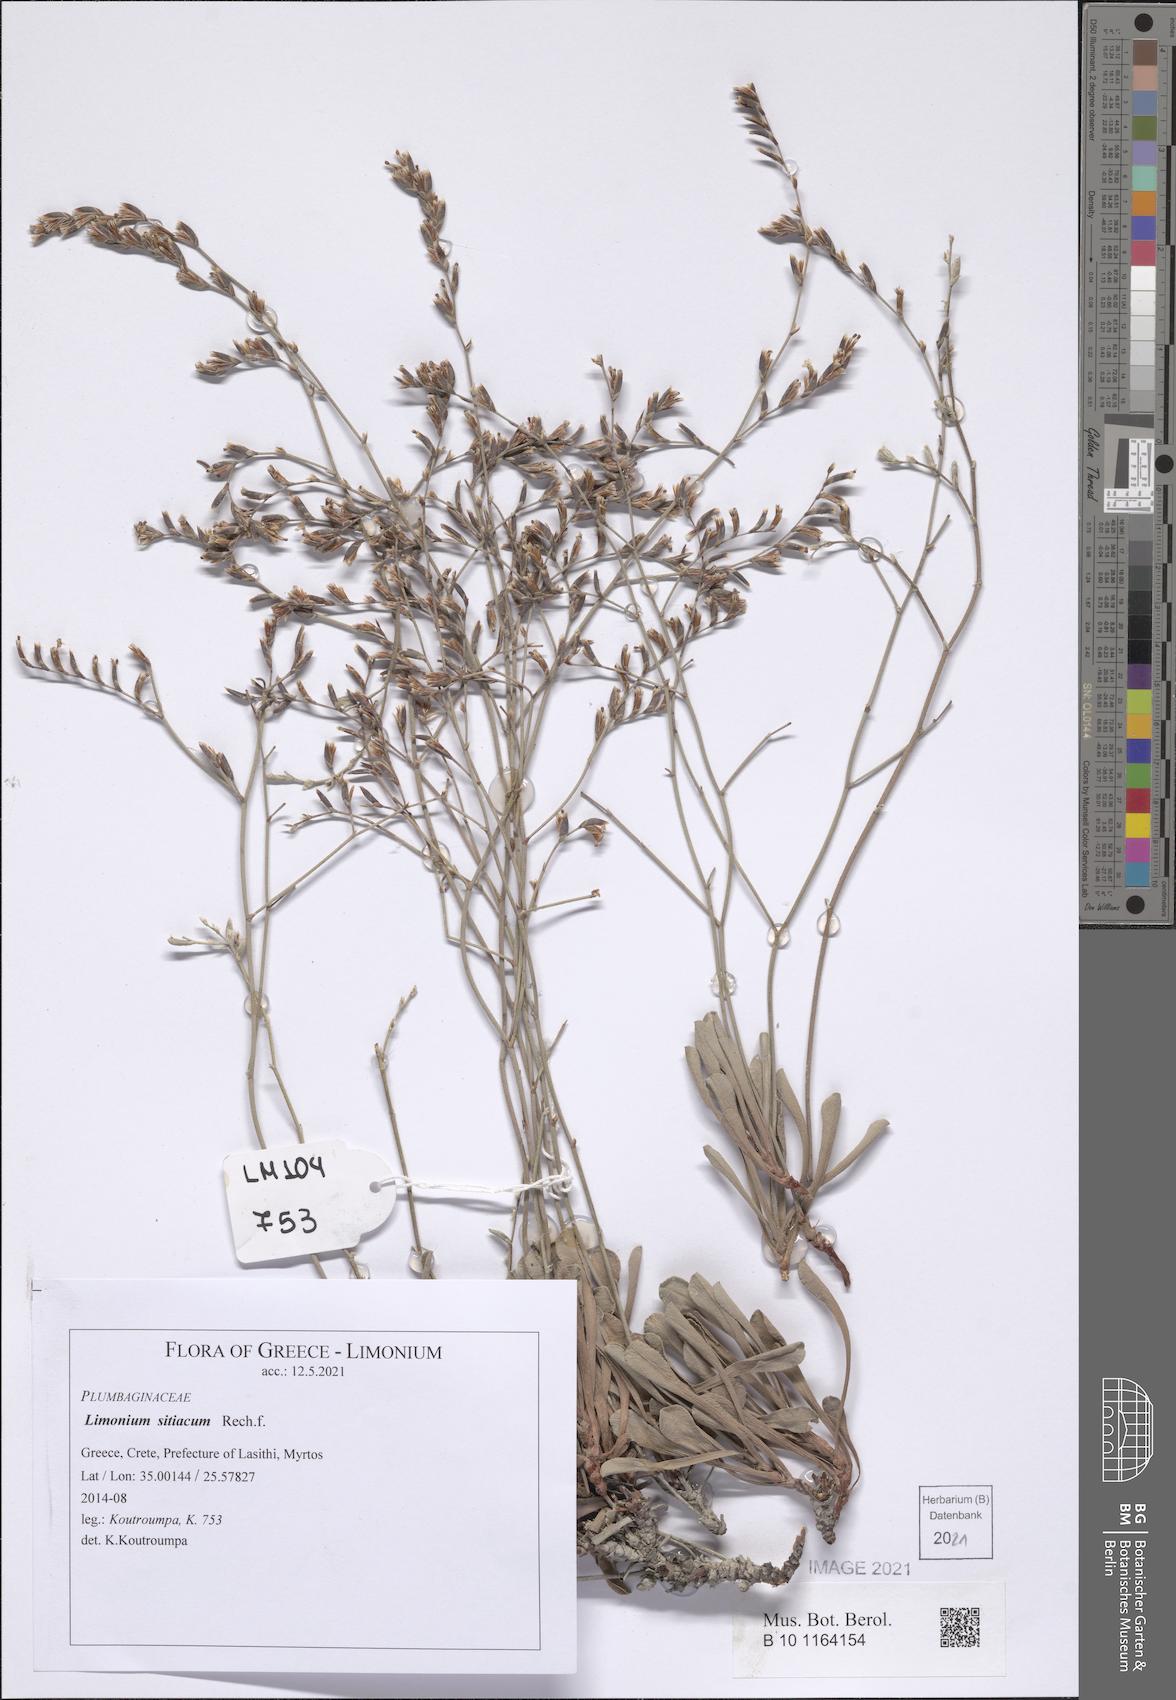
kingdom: Plantae
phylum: Tracheophyta
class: Magnoliopsida
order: Caryophyllales
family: Plumbaginaceae
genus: Limonium
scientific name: Limonium sitiacum
